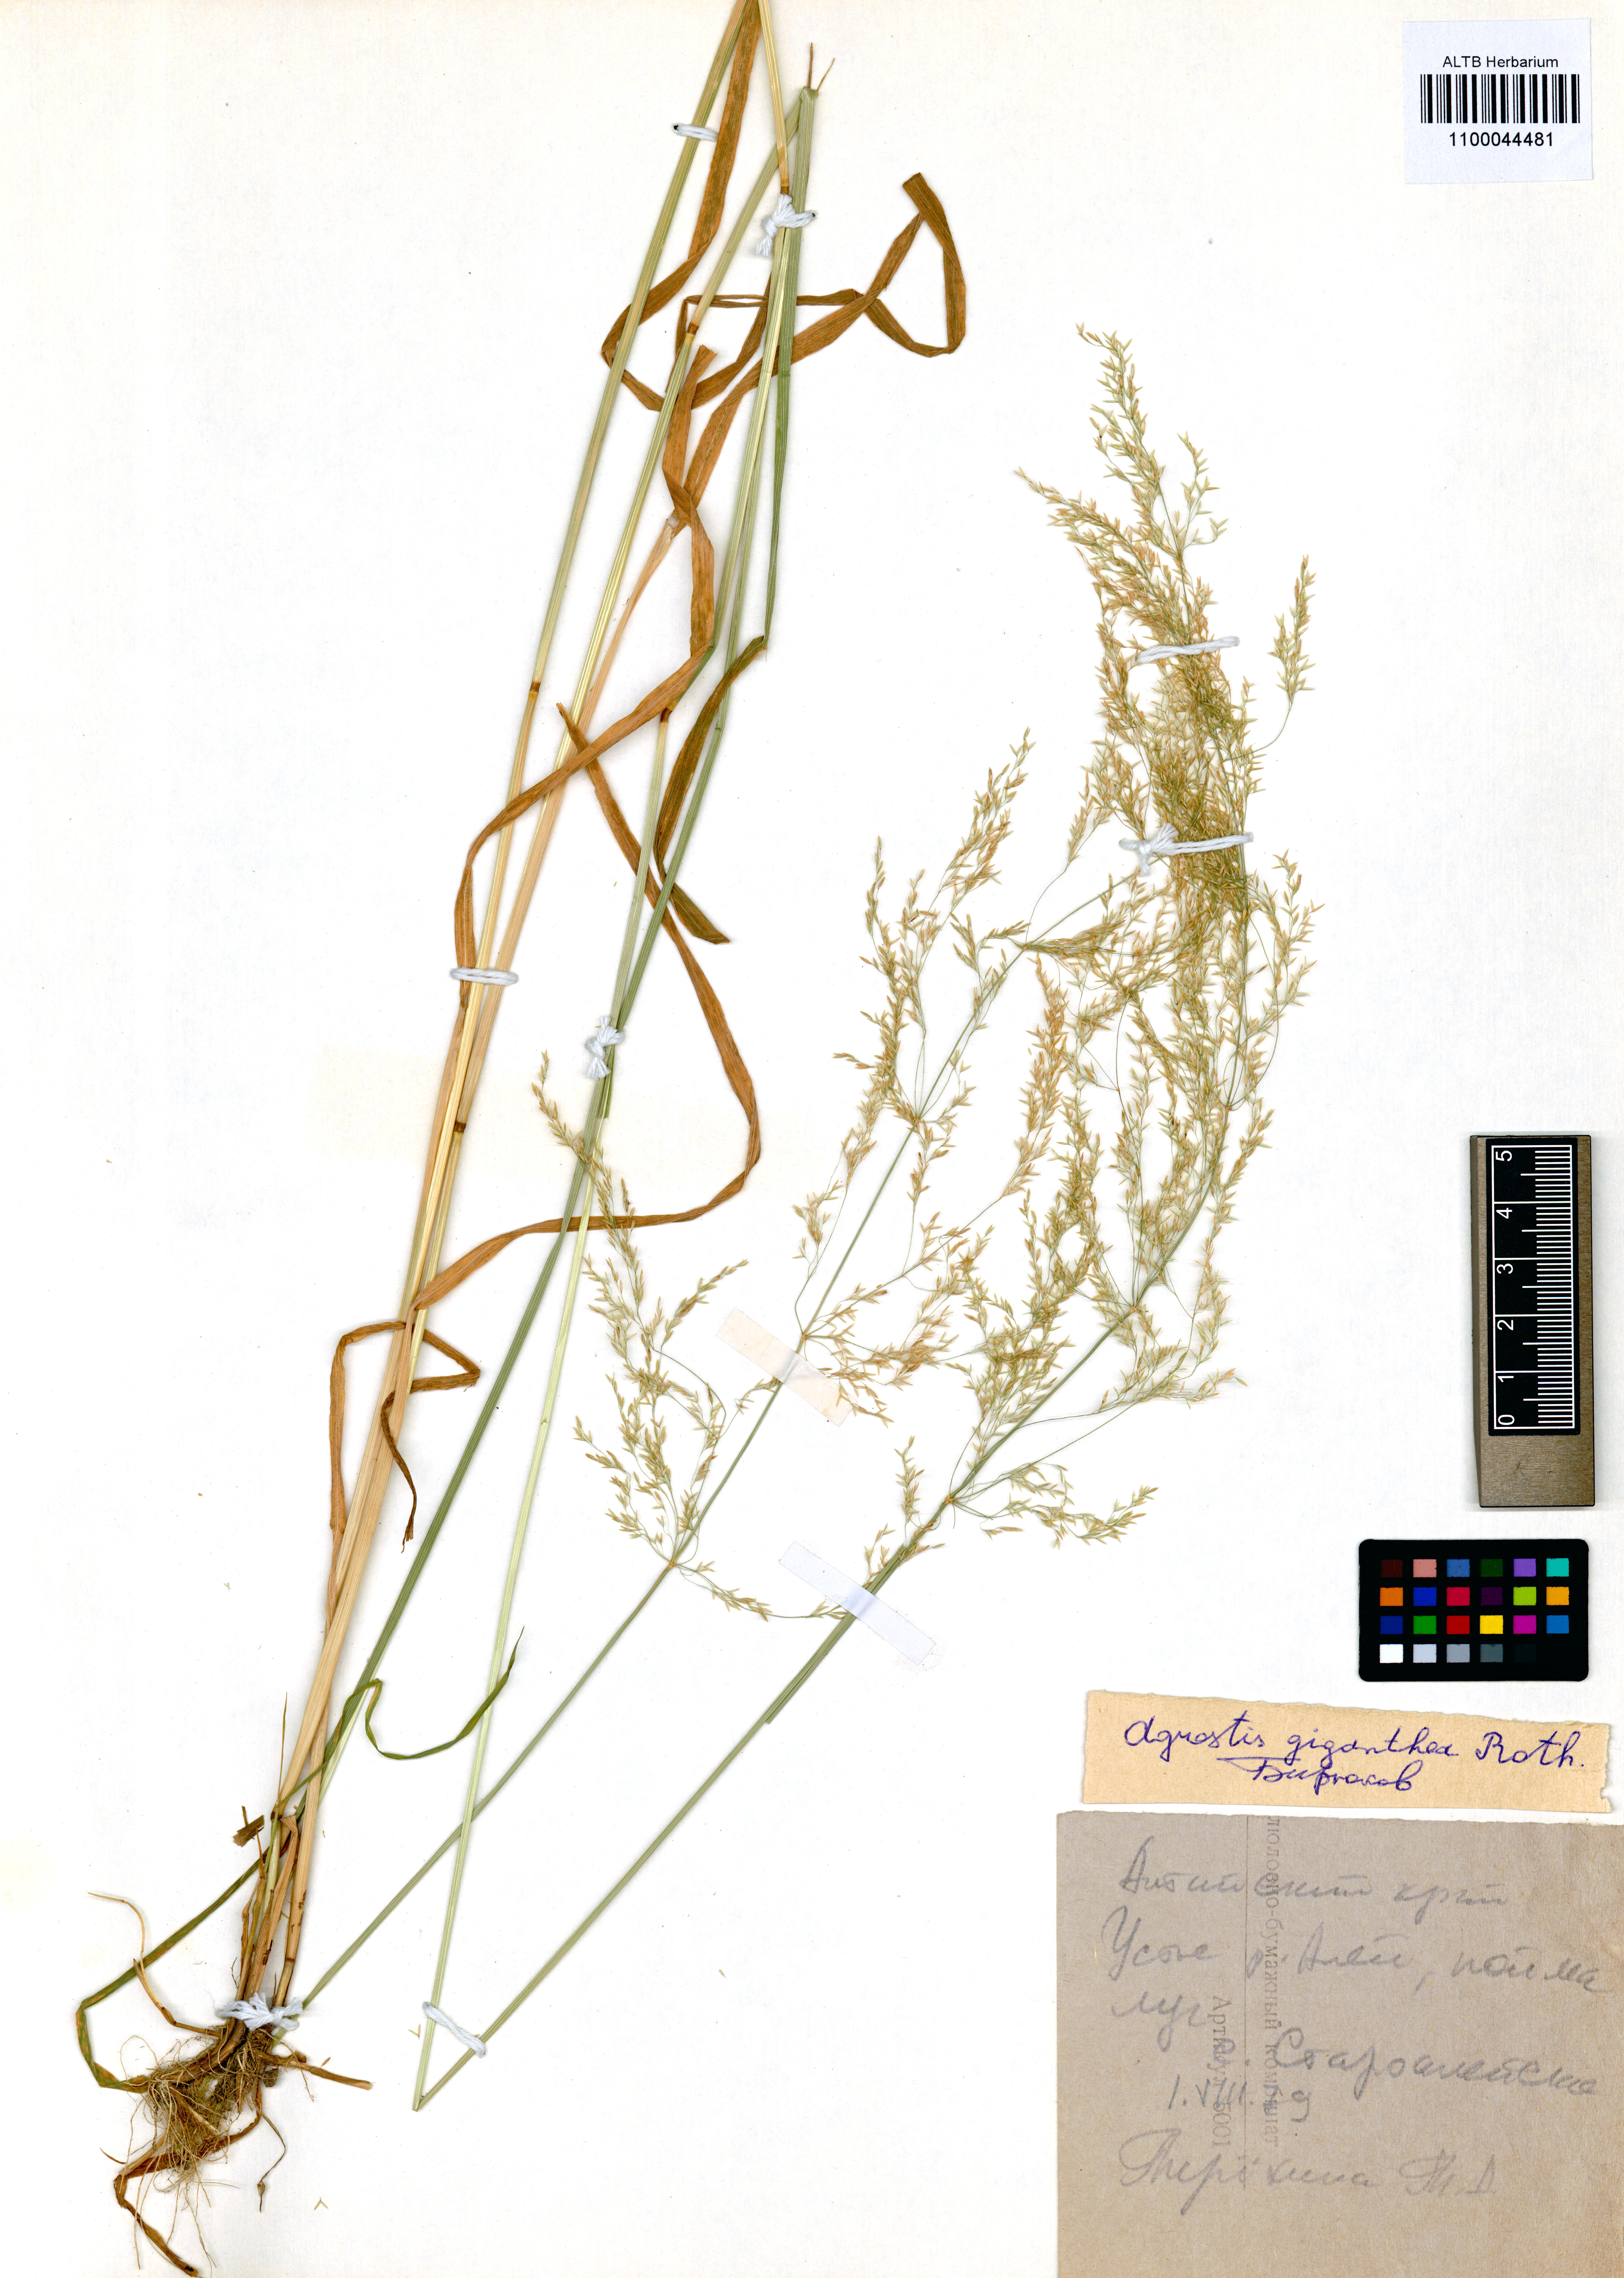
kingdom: Plantae
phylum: Tracheophyta
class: Liliopsida
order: Poales
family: Poaceae
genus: Agrostis
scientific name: Agrostis gigantea
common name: Black bent
